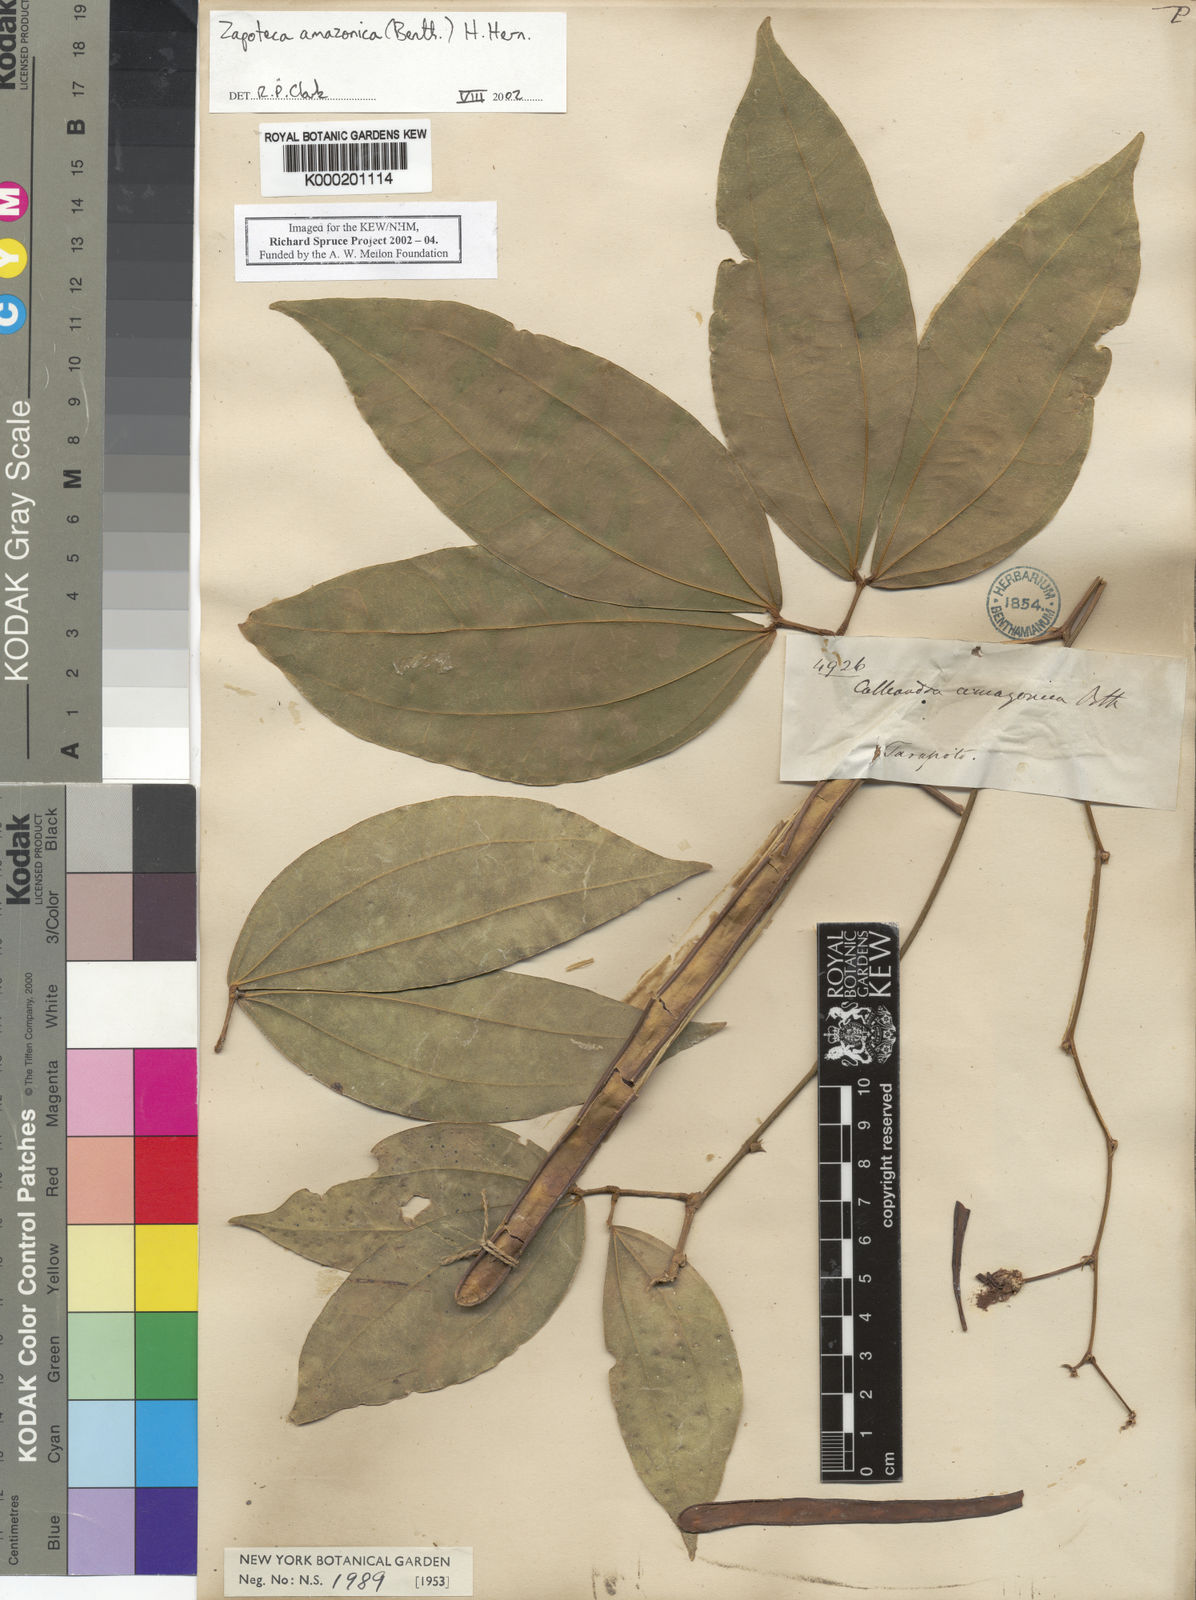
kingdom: Plantae
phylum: Tracheophyta
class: Magnoliopsida
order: Fabales
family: Fabaceae
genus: Zapoteca
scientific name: Zapoteca amazonica
